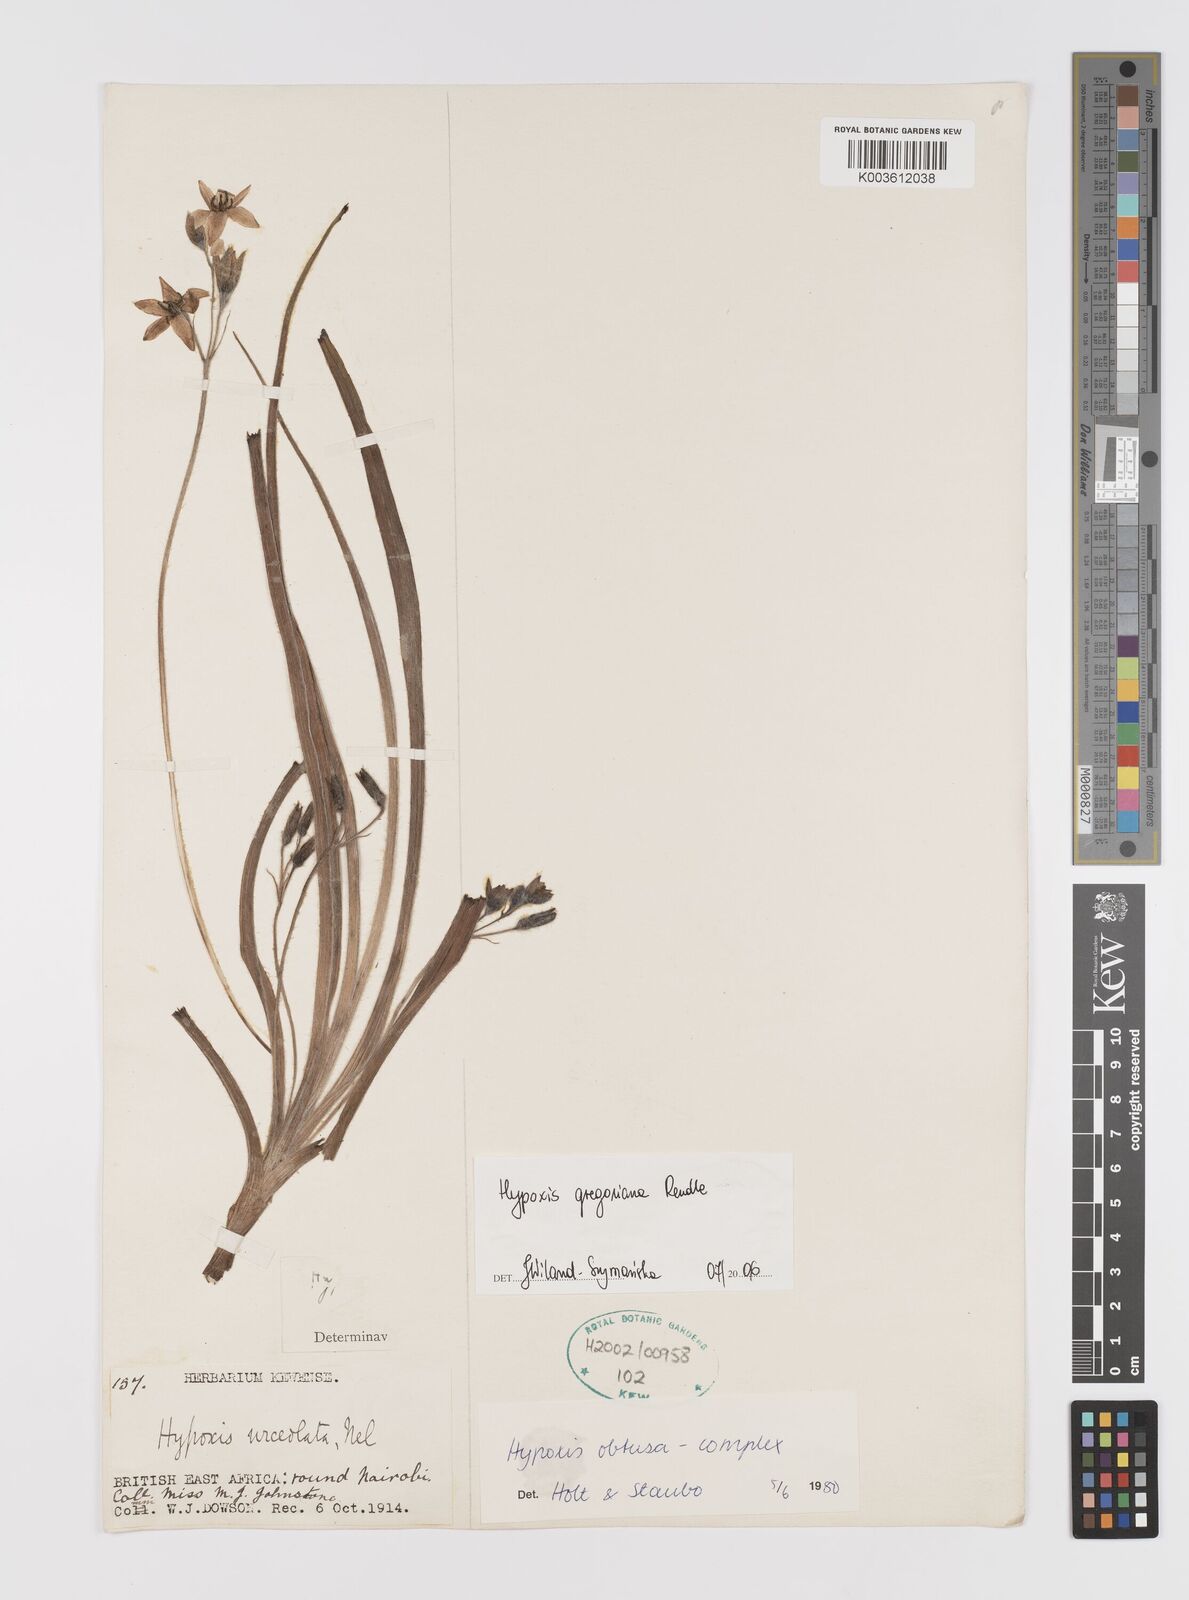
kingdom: Plantae
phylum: Tracheophyta
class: Liliopsida
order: Asparagales
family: Hypoxidaceae
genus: Hypoxis
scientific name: Hypoxis gregoriana
